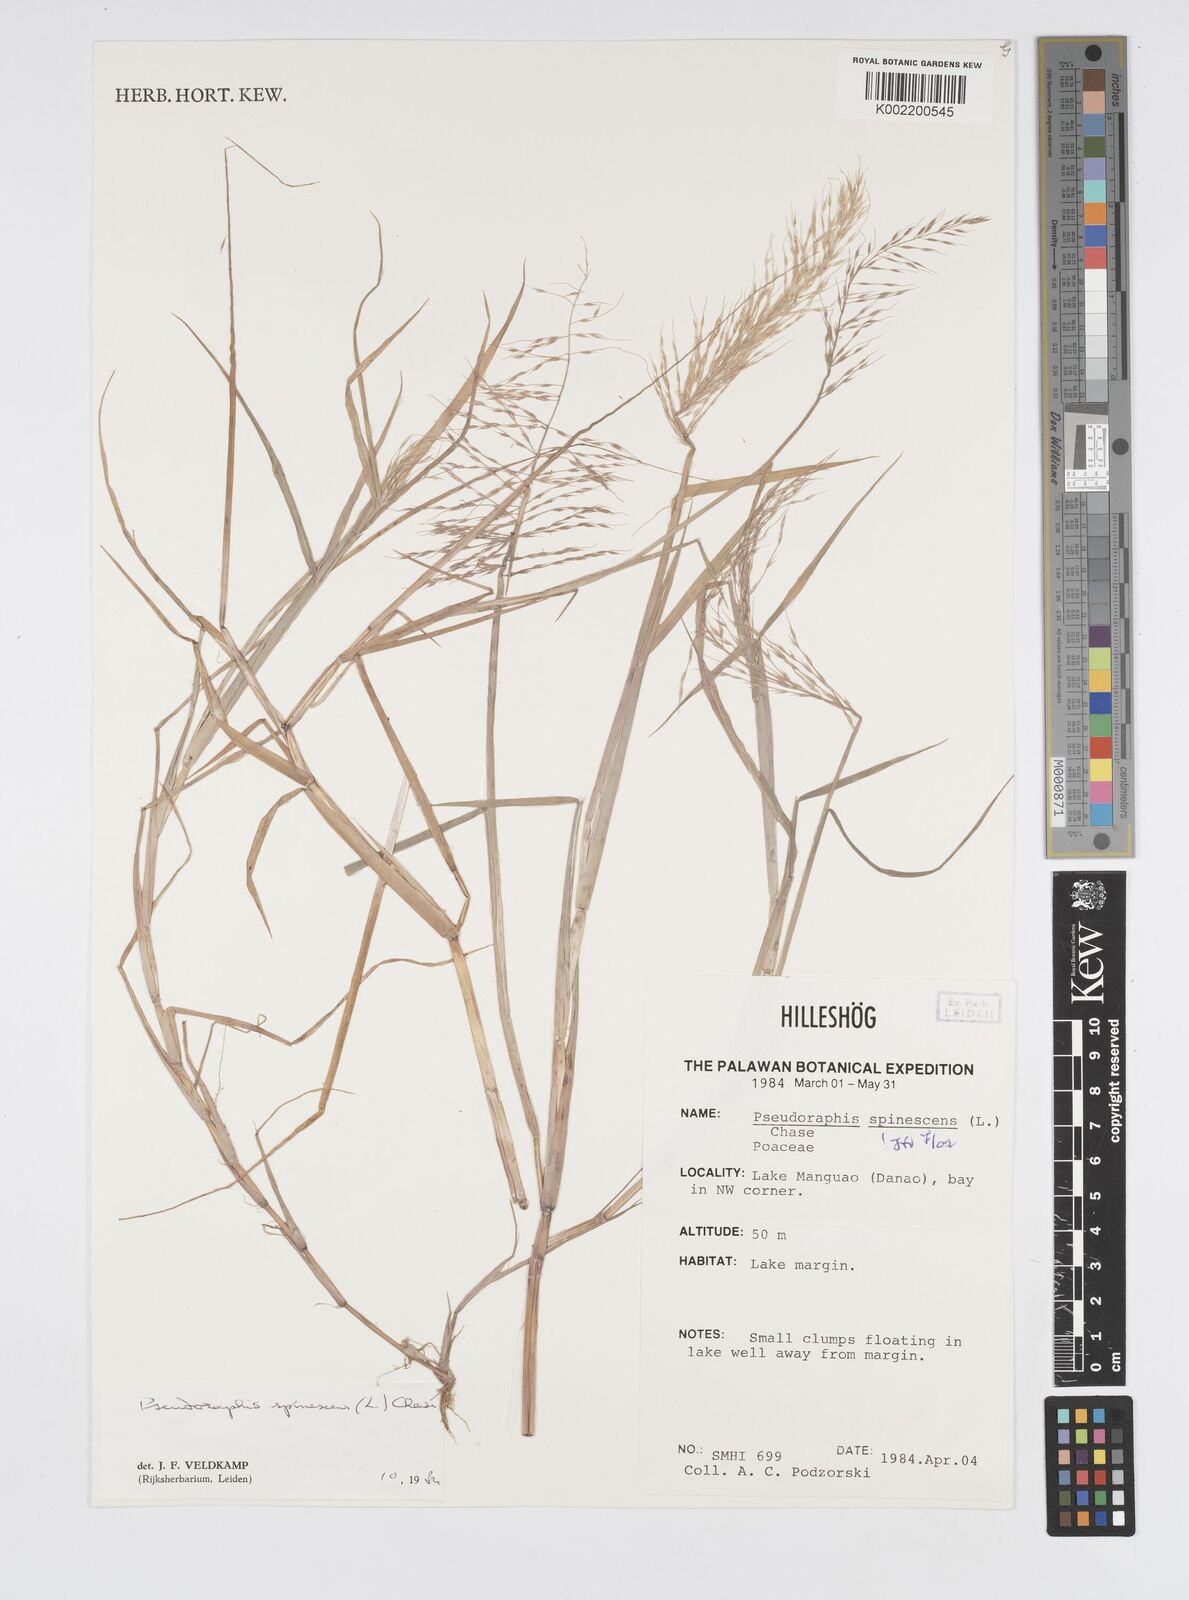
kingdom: Plantae
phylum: Tracheophyta
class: Liliopsida
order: Poales
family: Poaceae
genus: Pseudoraphis
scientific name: Pseudoraphis spinescens
